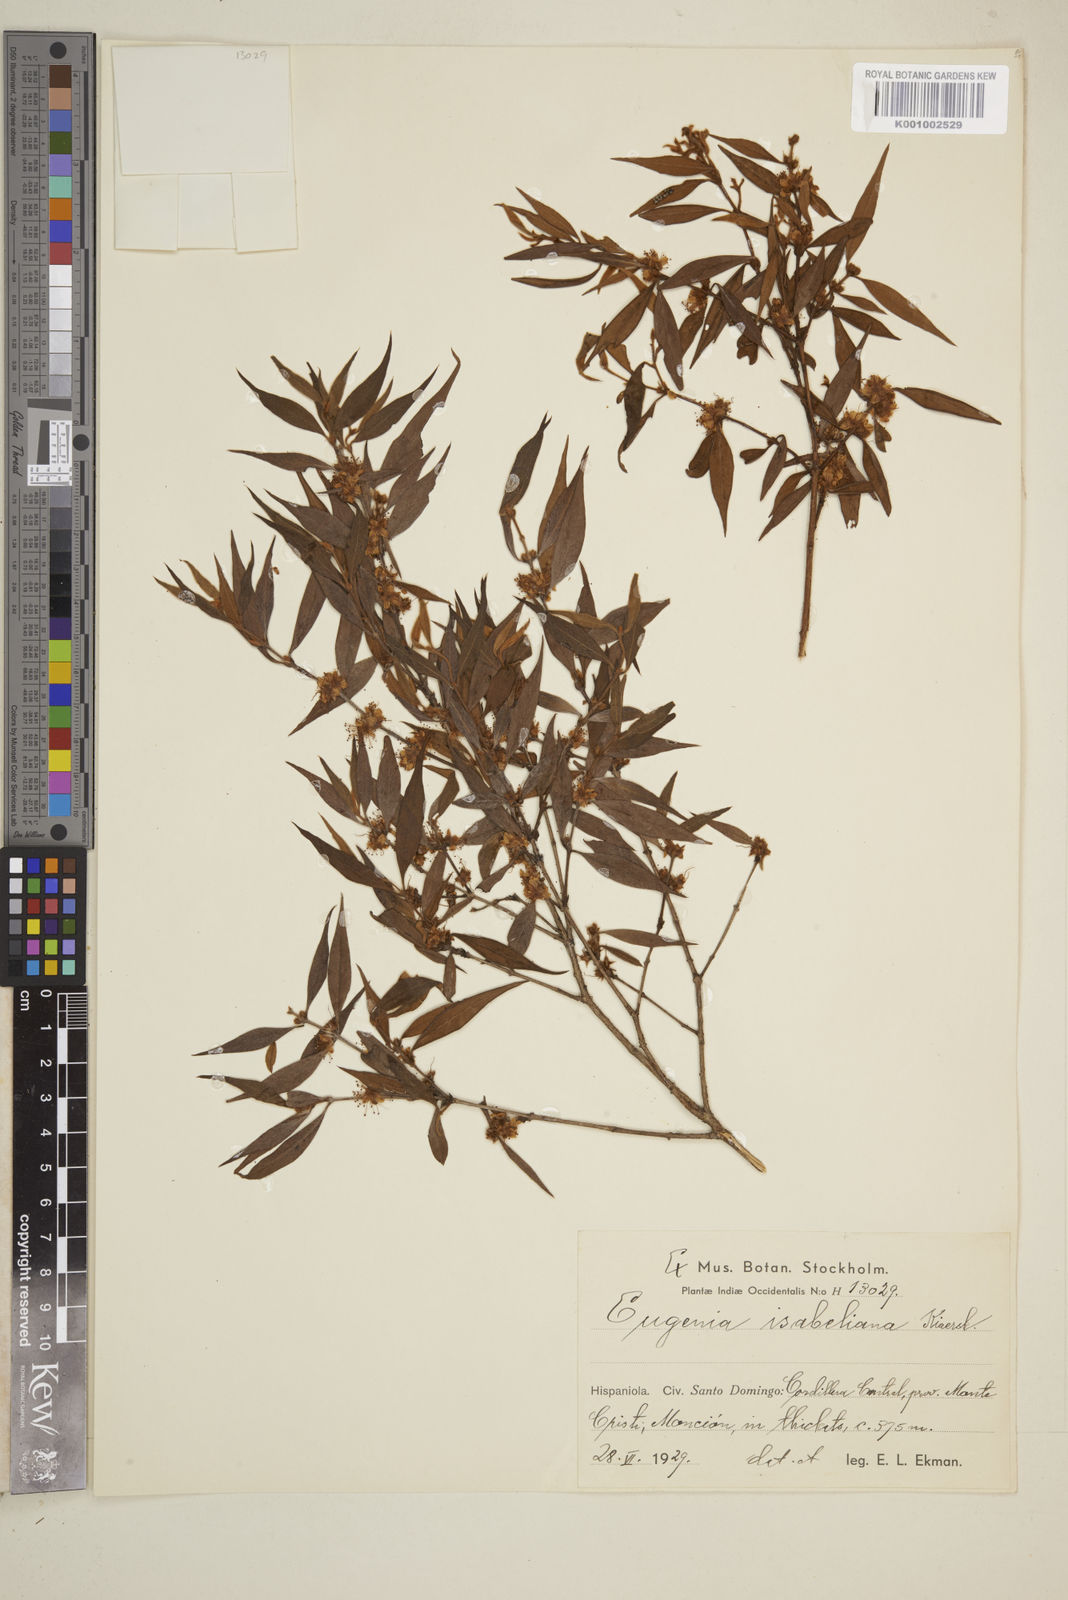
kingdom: Plantae
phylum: Tracheophyta
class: Magnoliopsida
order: Myrtales
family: Myrtaceae
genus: Eugenia
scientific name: Eugenia isabeliana
